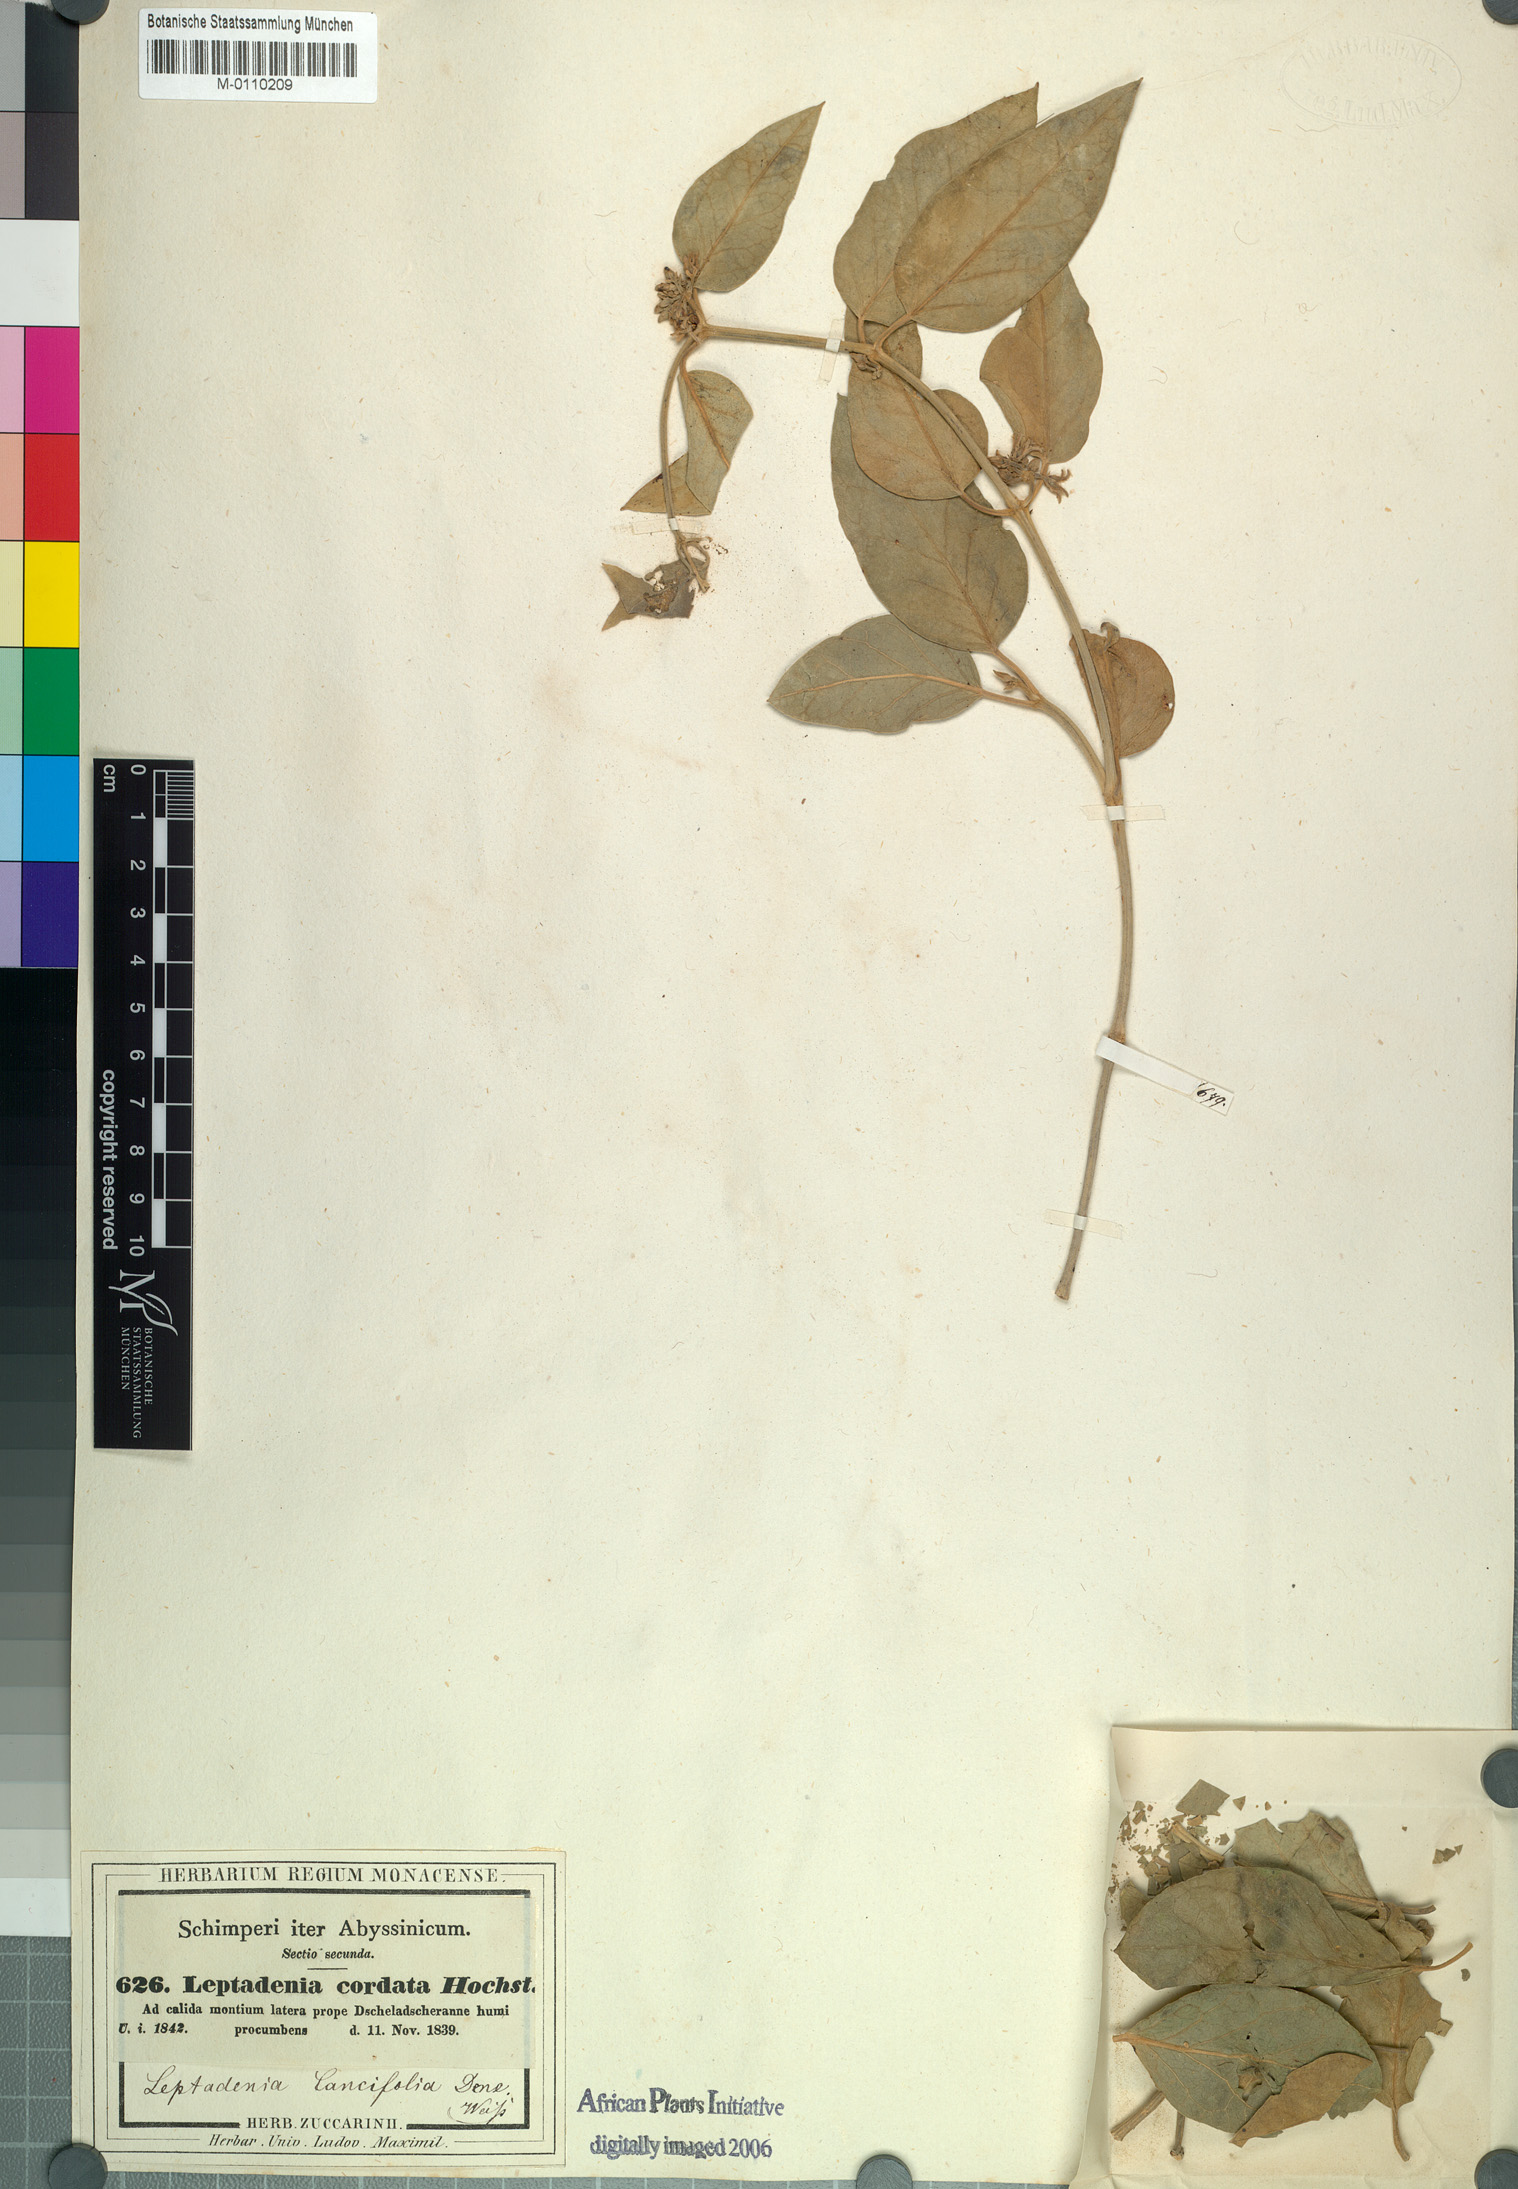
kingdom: Plantae
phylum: Tracheophyta
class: Magnoliopsida
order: Gentianales
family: Apocynaceae
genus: Leptadenia
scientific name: Leptadenia lanceolata
